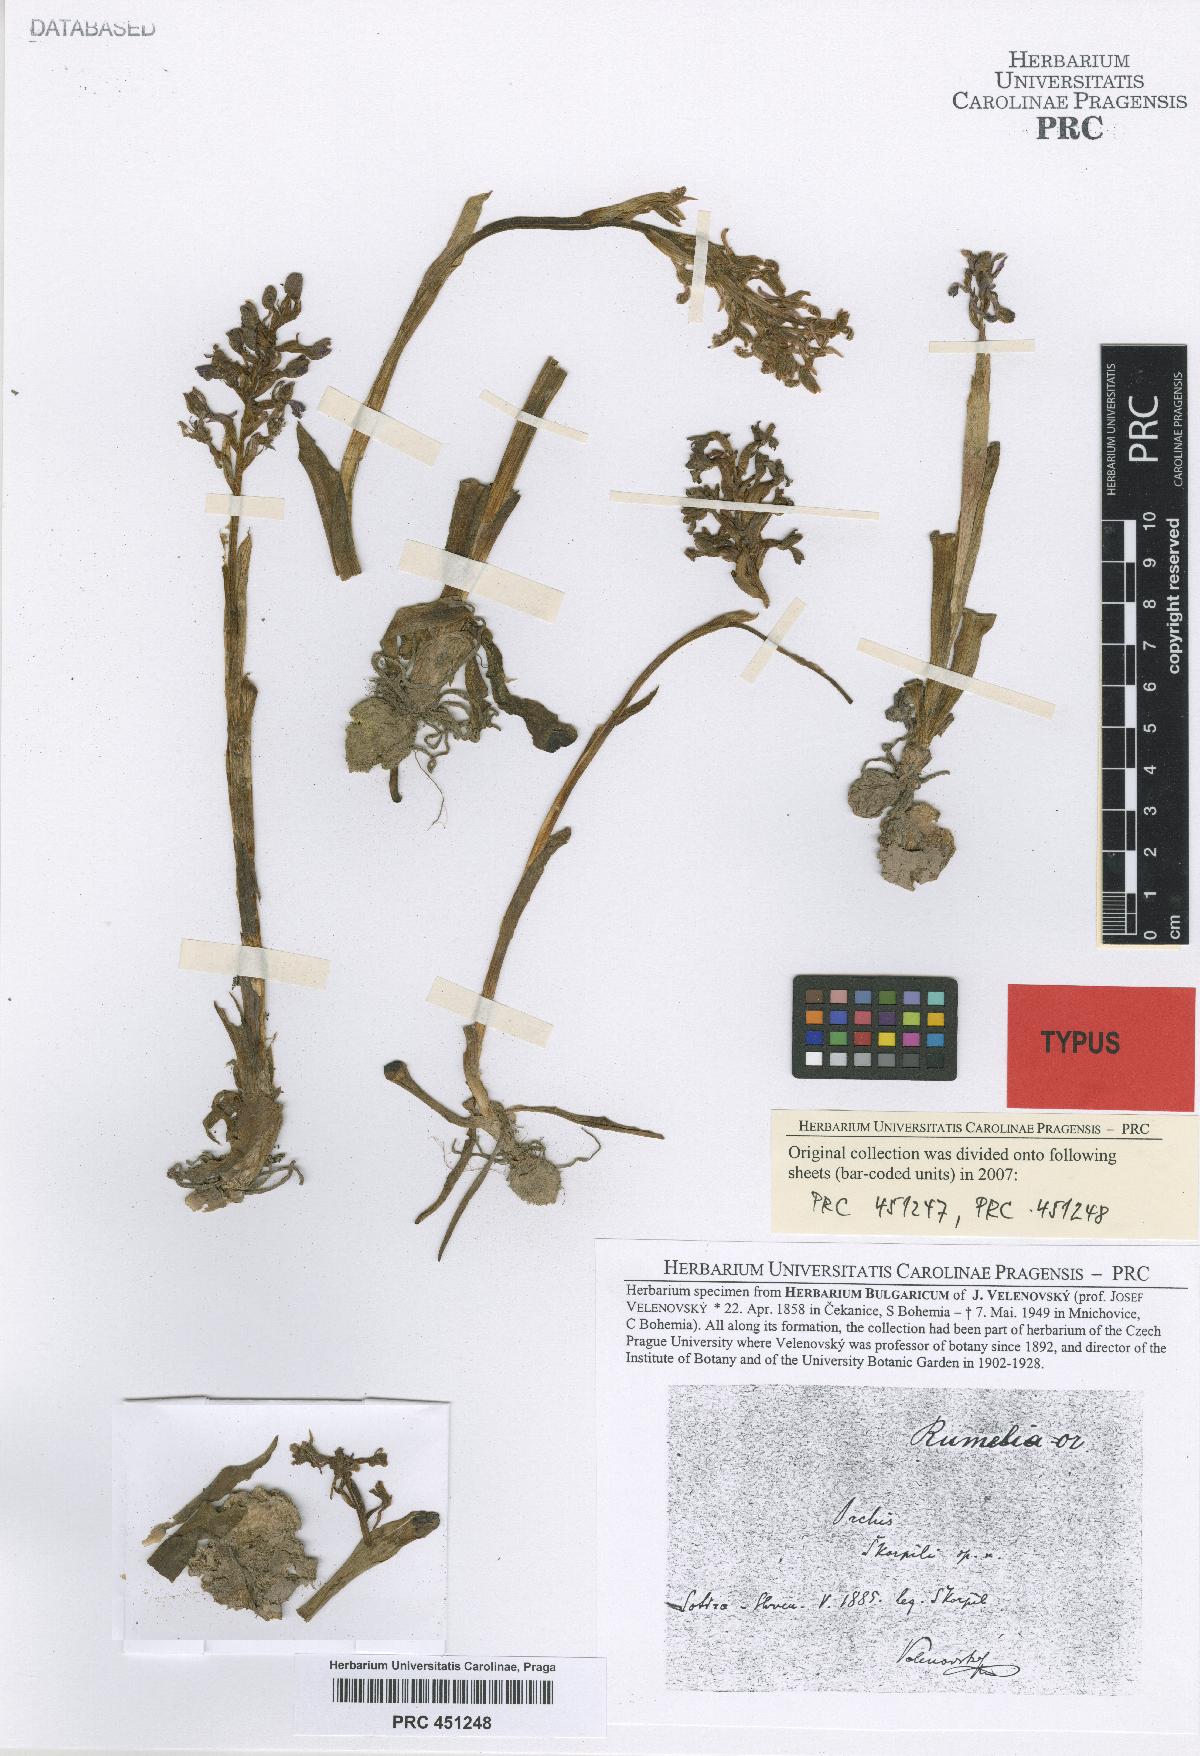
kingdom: Plantae
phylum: Tracheophyta
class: Liliopsida
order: Asparagales
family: Orchidaceae
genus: Anacamptis
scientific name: Anacamptis morio
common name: Green-winged orchid
